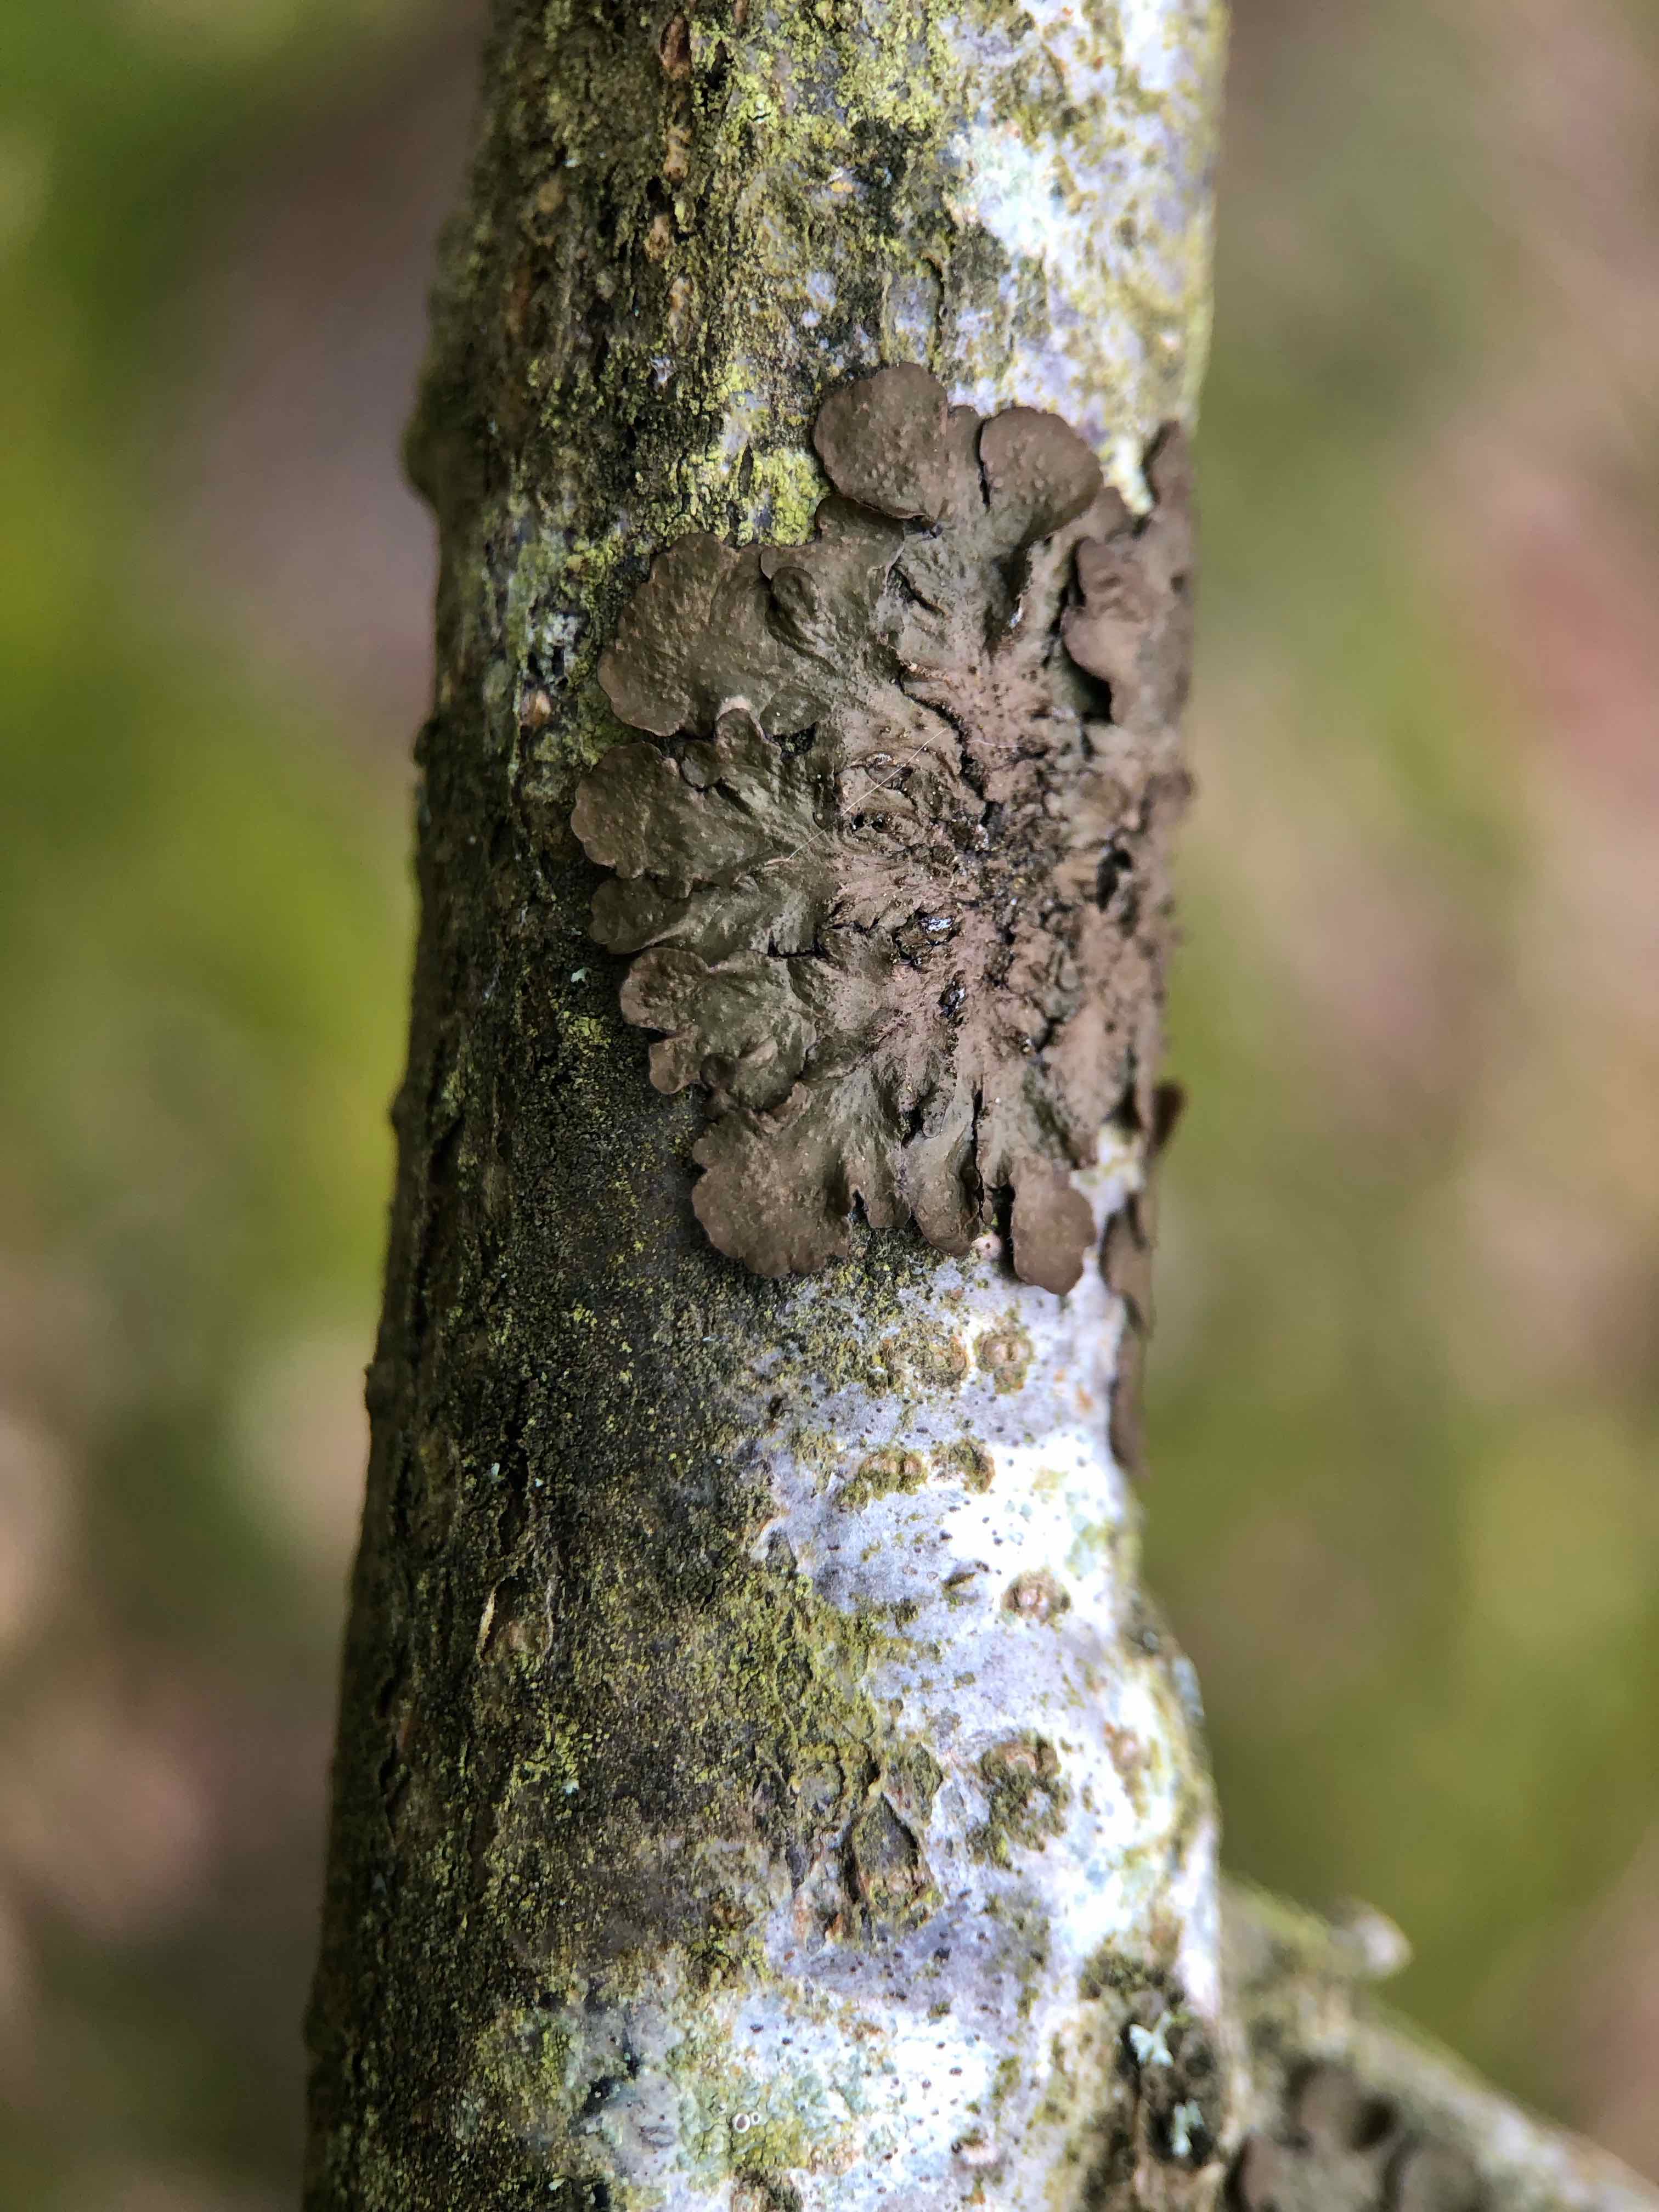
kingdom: Fungi
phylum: Ascomycota
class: Lecanoromycetes
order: Lecanorales
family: Parmeliaceae
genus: Melanelixia
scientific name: Melanelixia subaurifera
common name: guldpudret skållav
